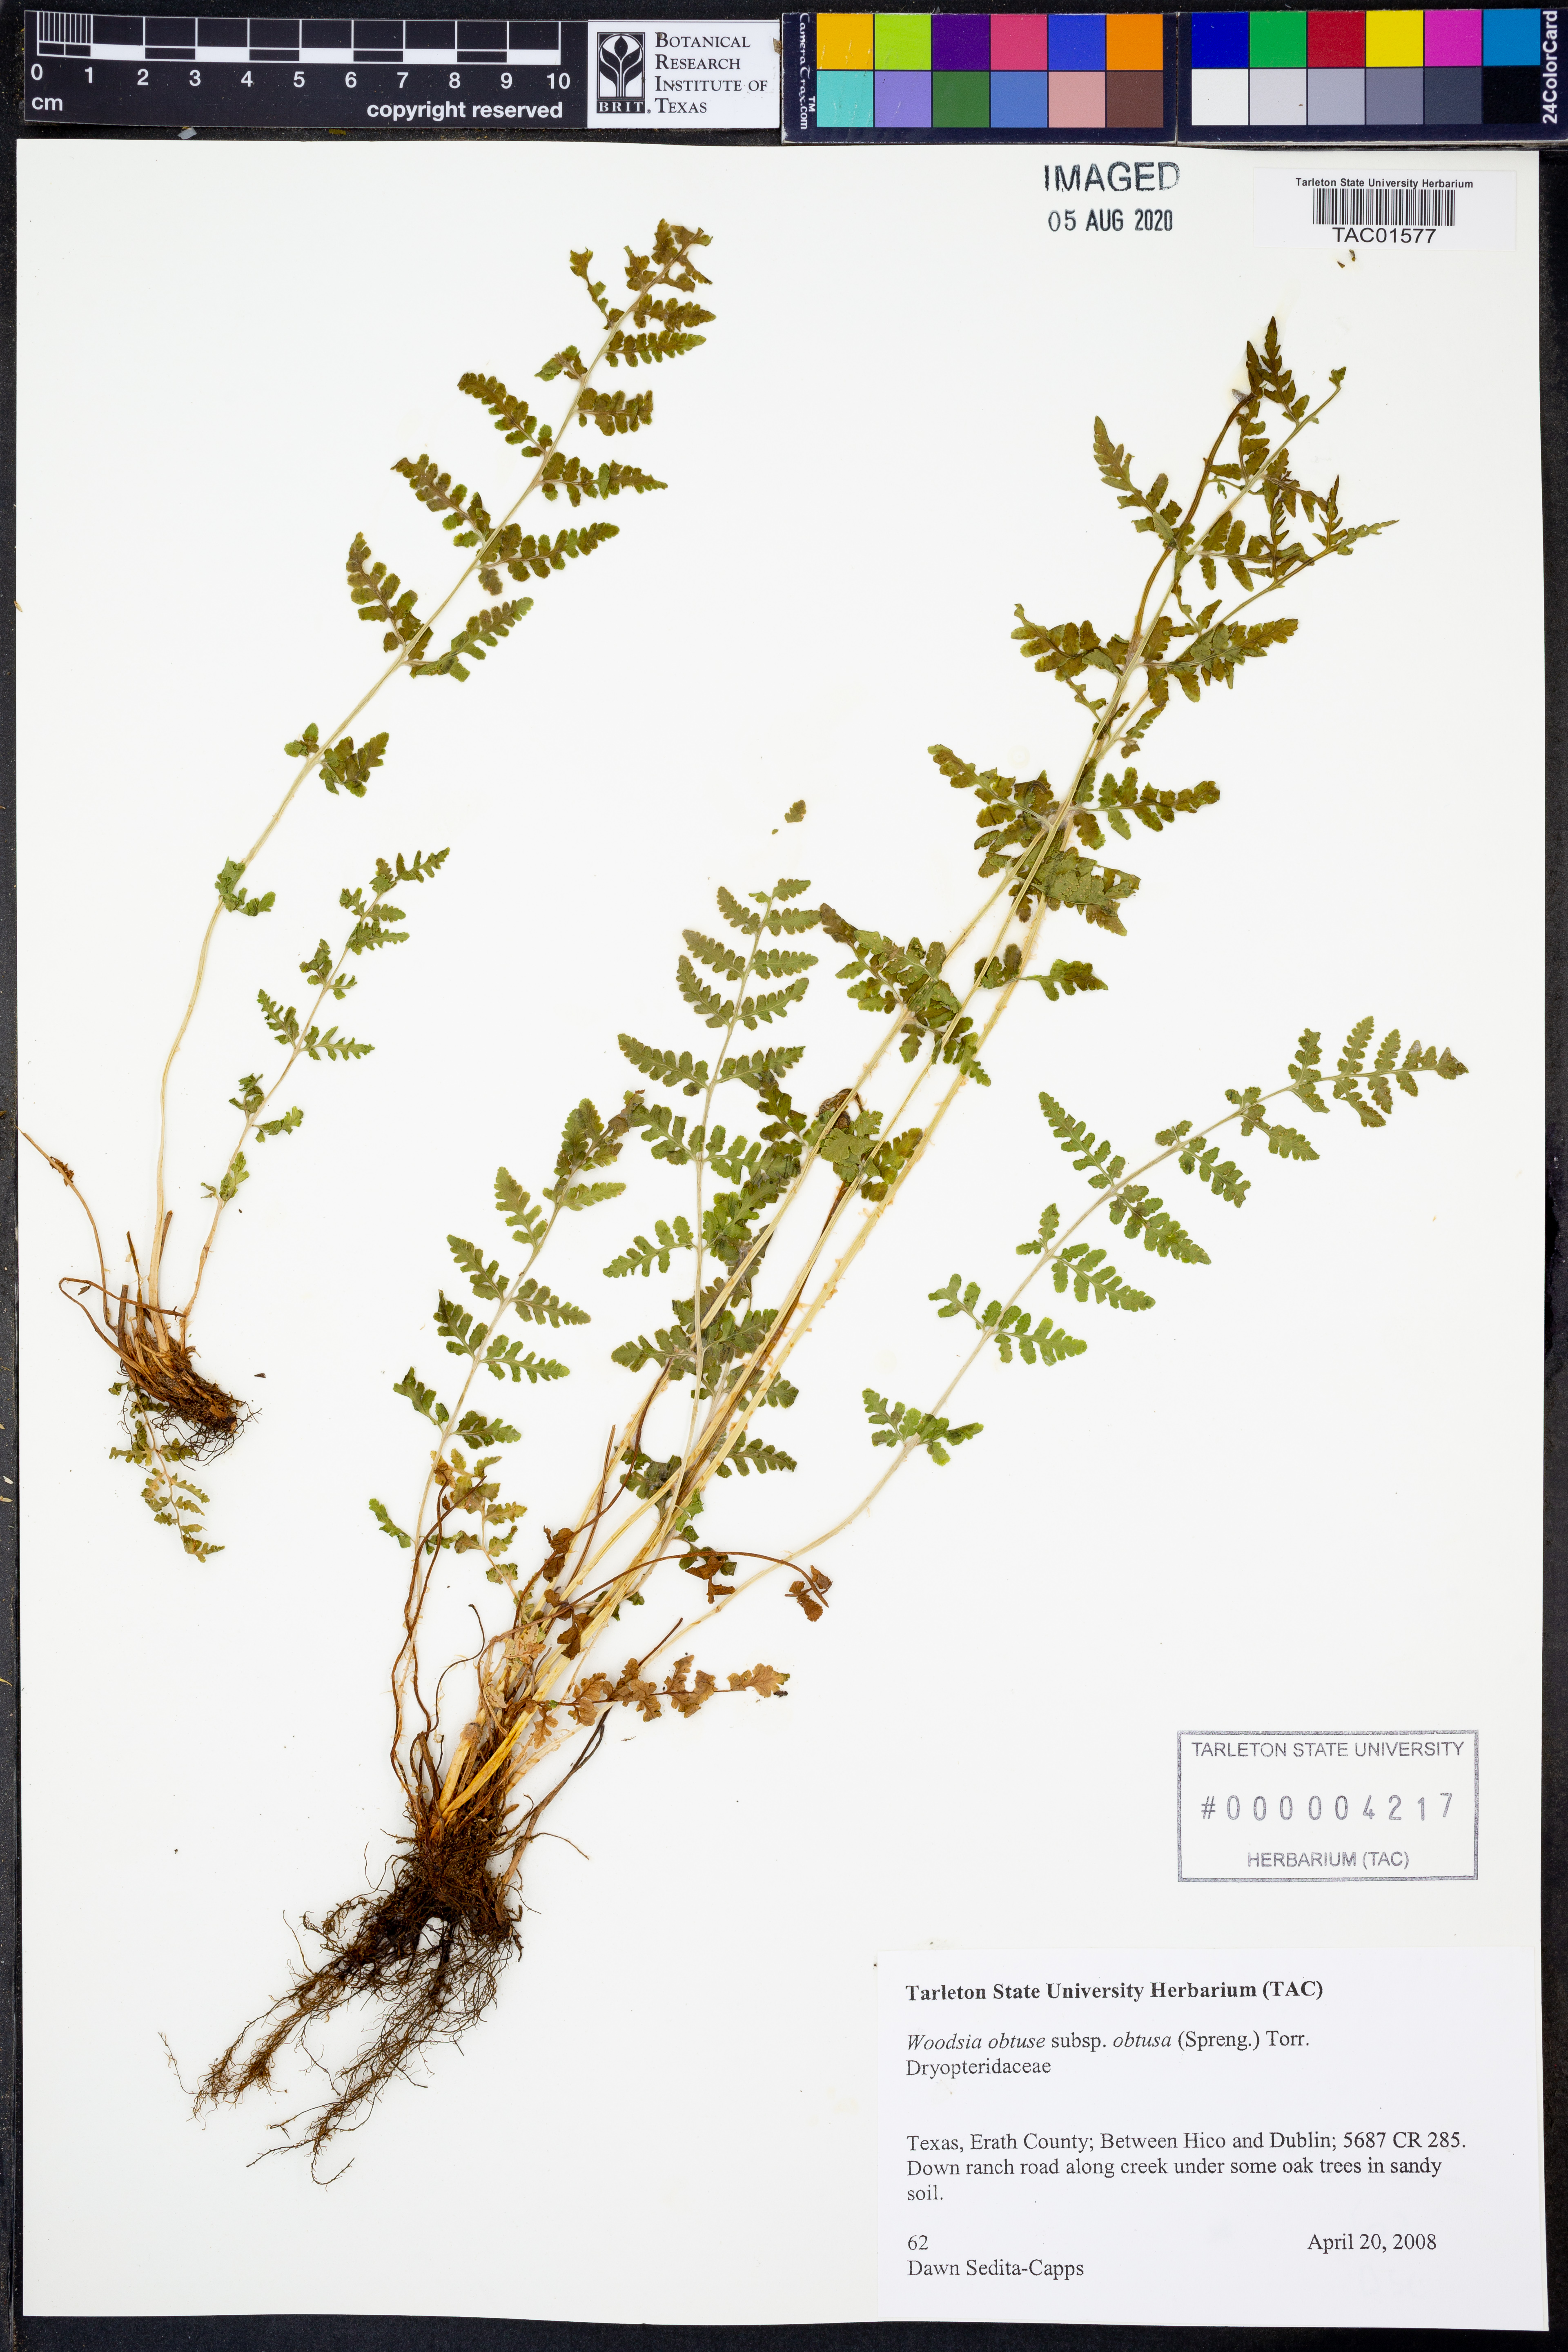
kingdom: Plantae
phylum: Tracheophyta
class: Polypodiopsida
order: Polypodiales
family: Woodsiaceae
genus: Physematium
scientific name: Physematium obtusum
